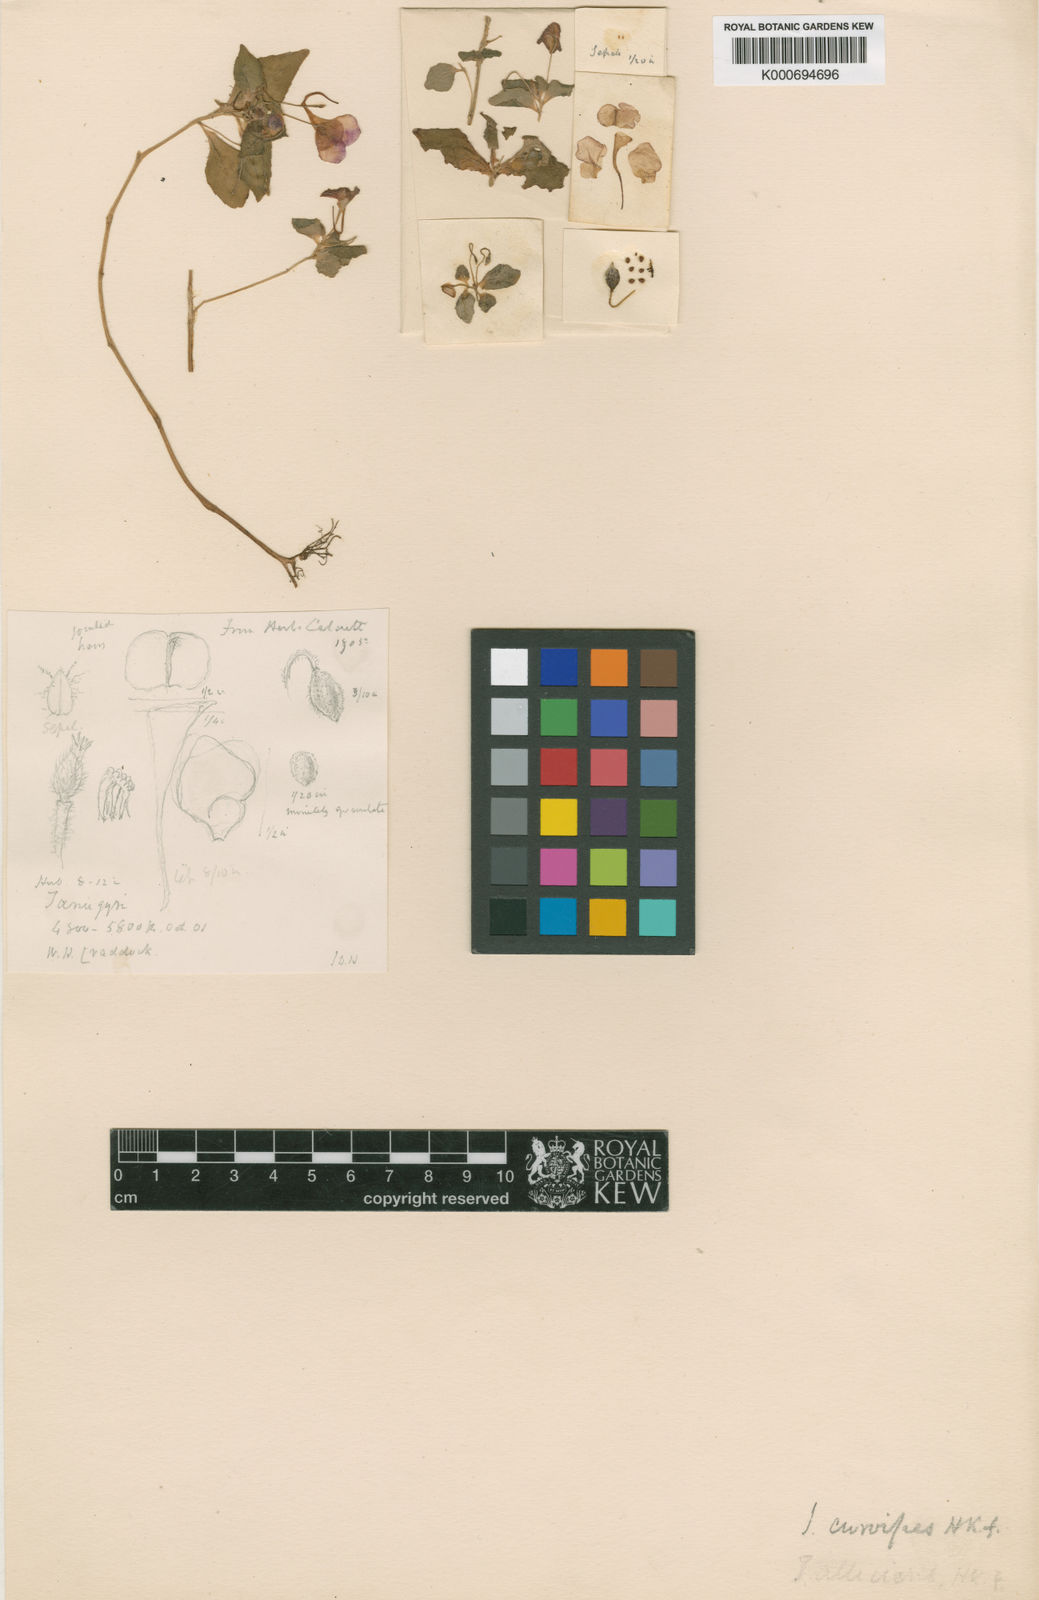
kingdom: Plantae
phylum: Tracheophyta
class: Magnoliopsida
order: Ericales
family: Balsaminaceae
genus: Impatiens
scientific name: Impatiens curvipes
